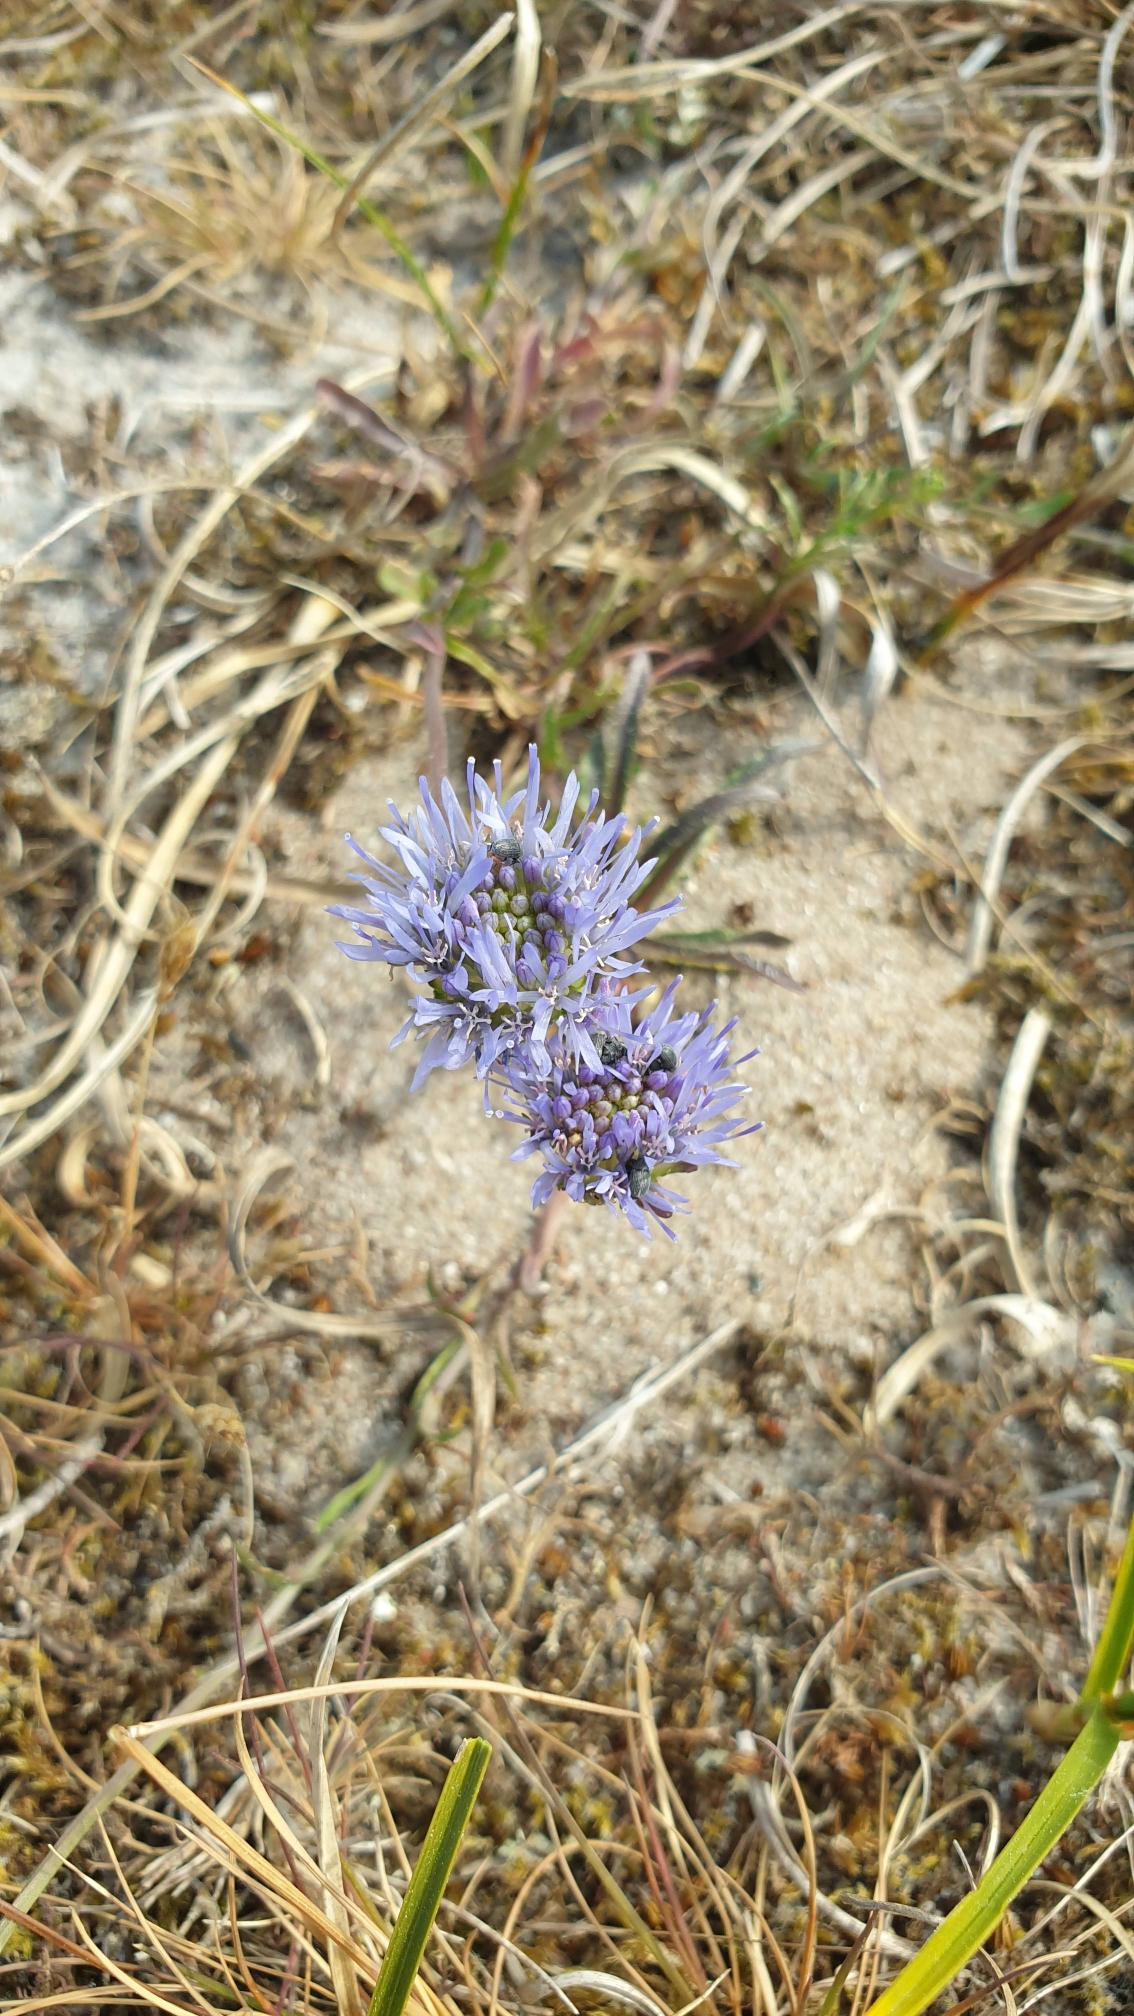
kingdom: Plantae
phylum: Tracheophyta
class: Magnoliopsida
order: Asterales
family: Campanulaceae
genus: Jasione
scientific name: Jasione montana
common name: Blåmunke
